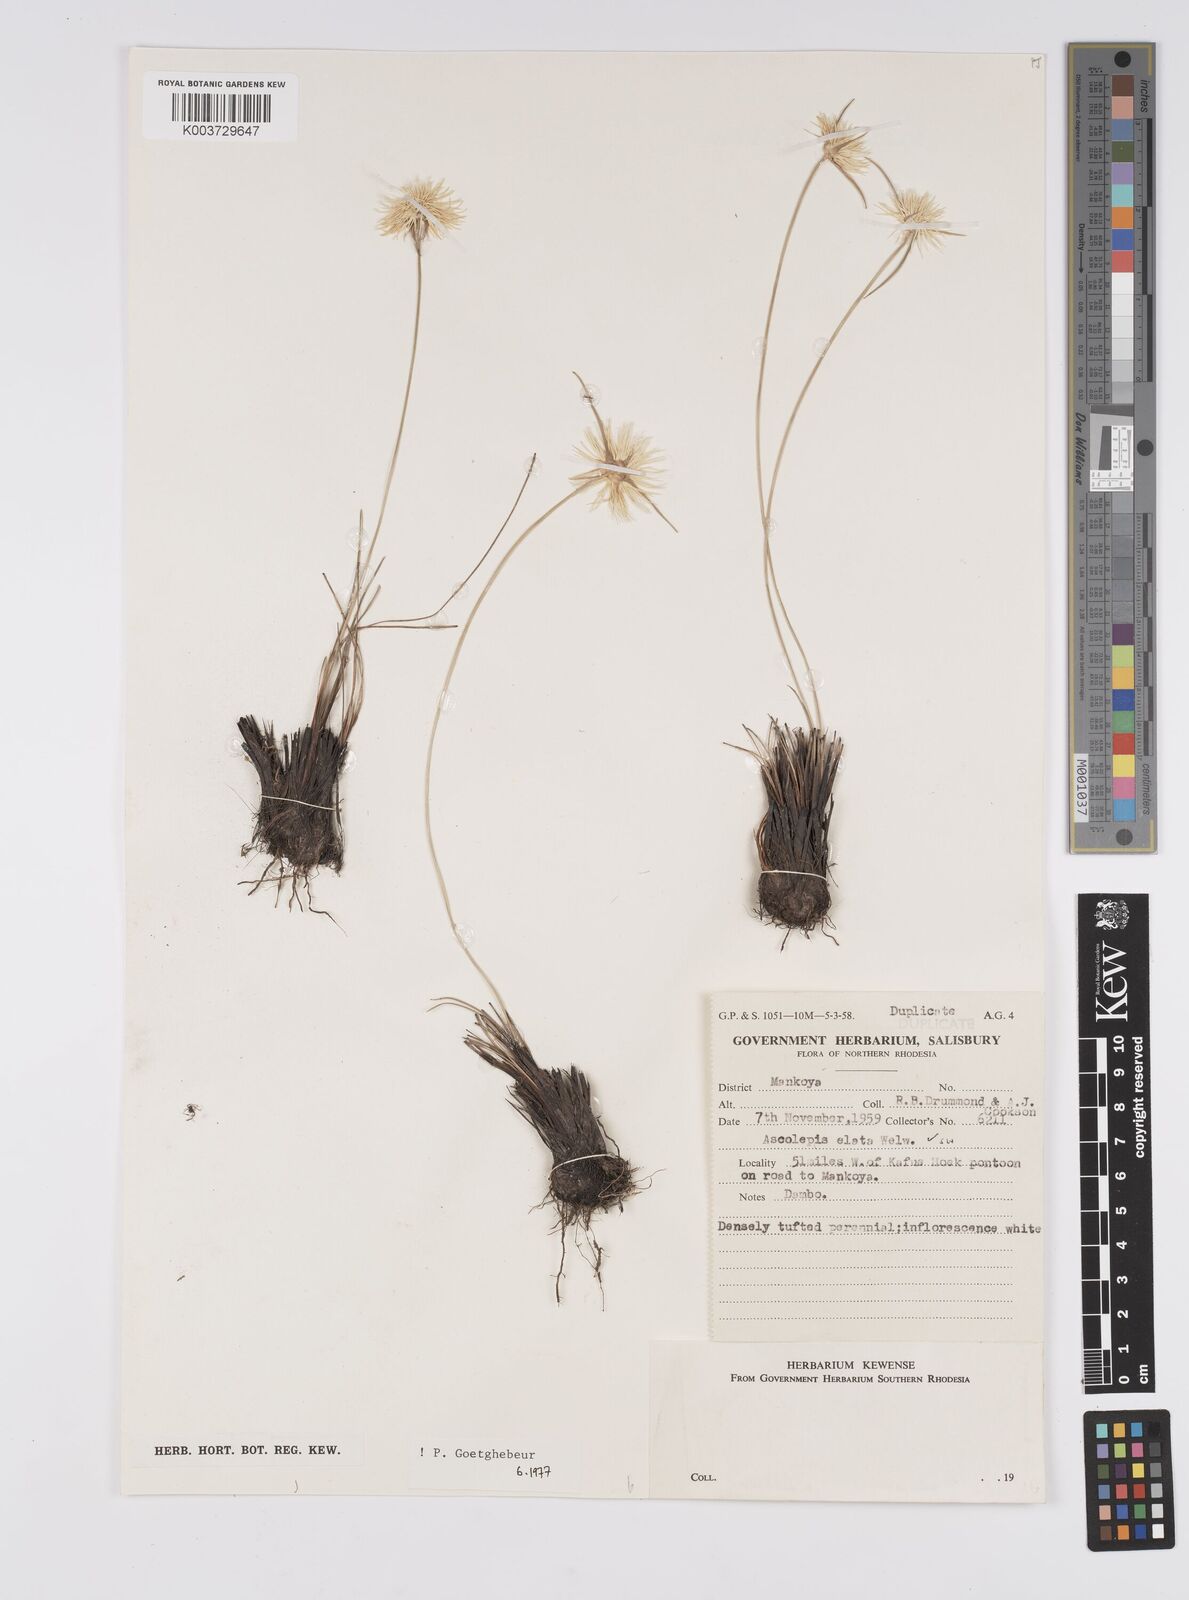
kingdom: Plantae
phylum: Tracheophyta
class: Liliopsida
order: Poales
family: Cyperaceae
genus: Cyperus
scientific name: Cyperus
